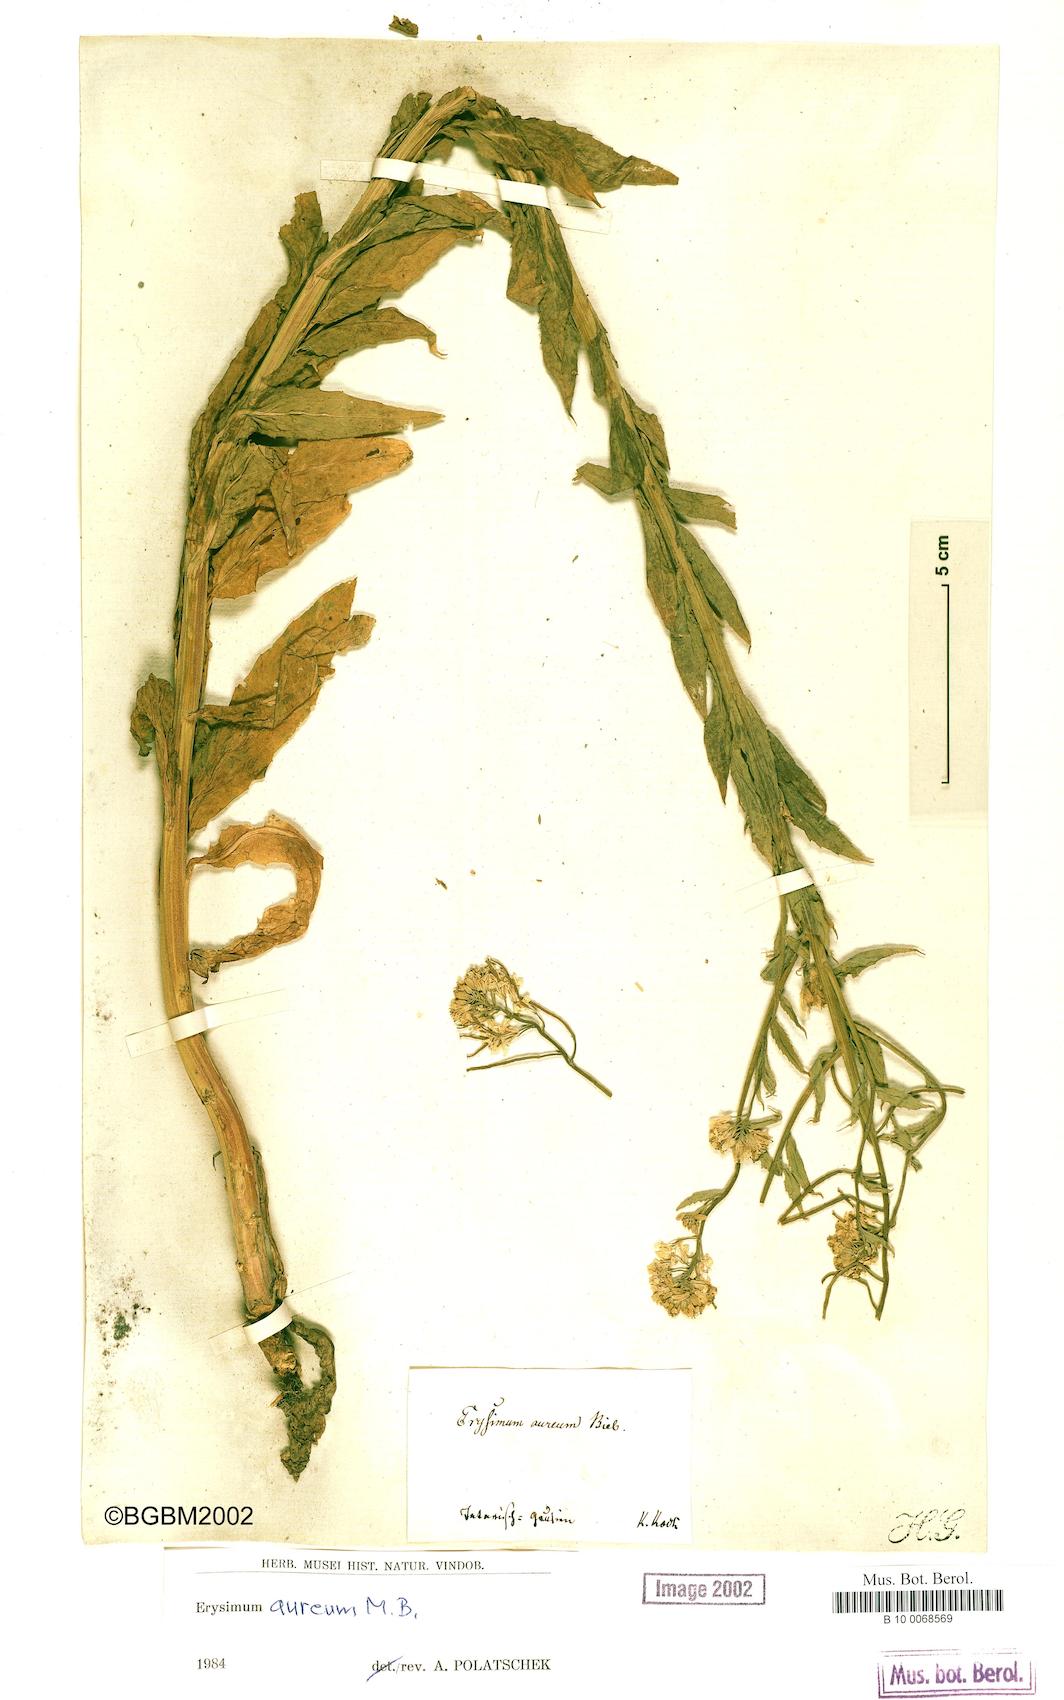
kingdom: Plantae
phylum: Tracheophyta
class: Magnoliopsida
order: Brassicales
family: Brassicaceae
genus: Erysimum
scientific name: Erysimum aureum
